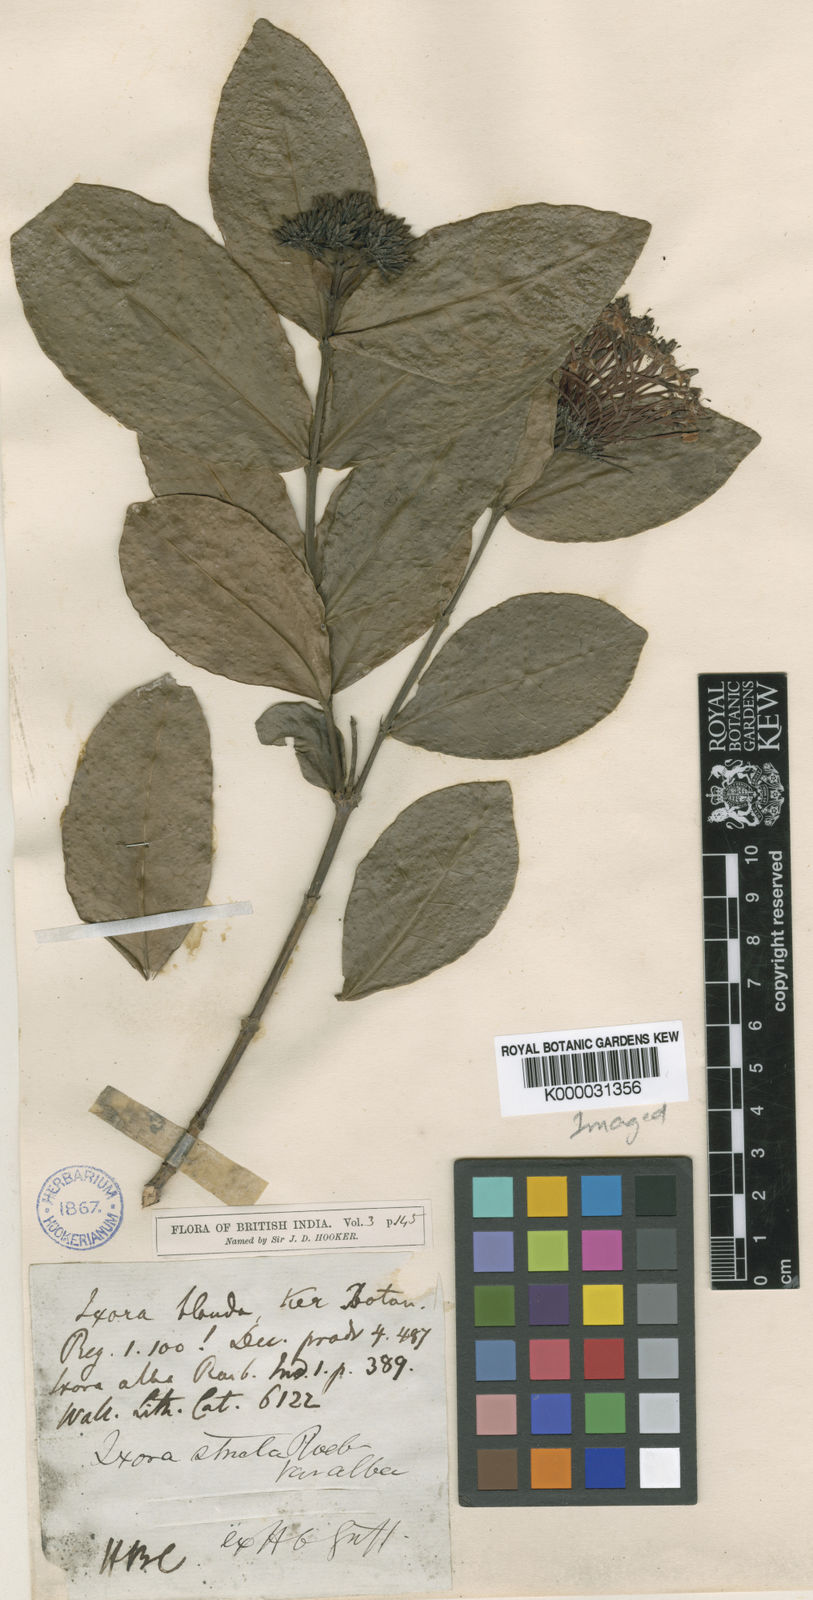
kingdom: Plantae
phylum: Tracheophyta
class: Magnoliopsida
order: Gentianales
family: Rubiaceae
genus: Ixora
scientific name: Ixora chinensis
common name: Chinese ixora
